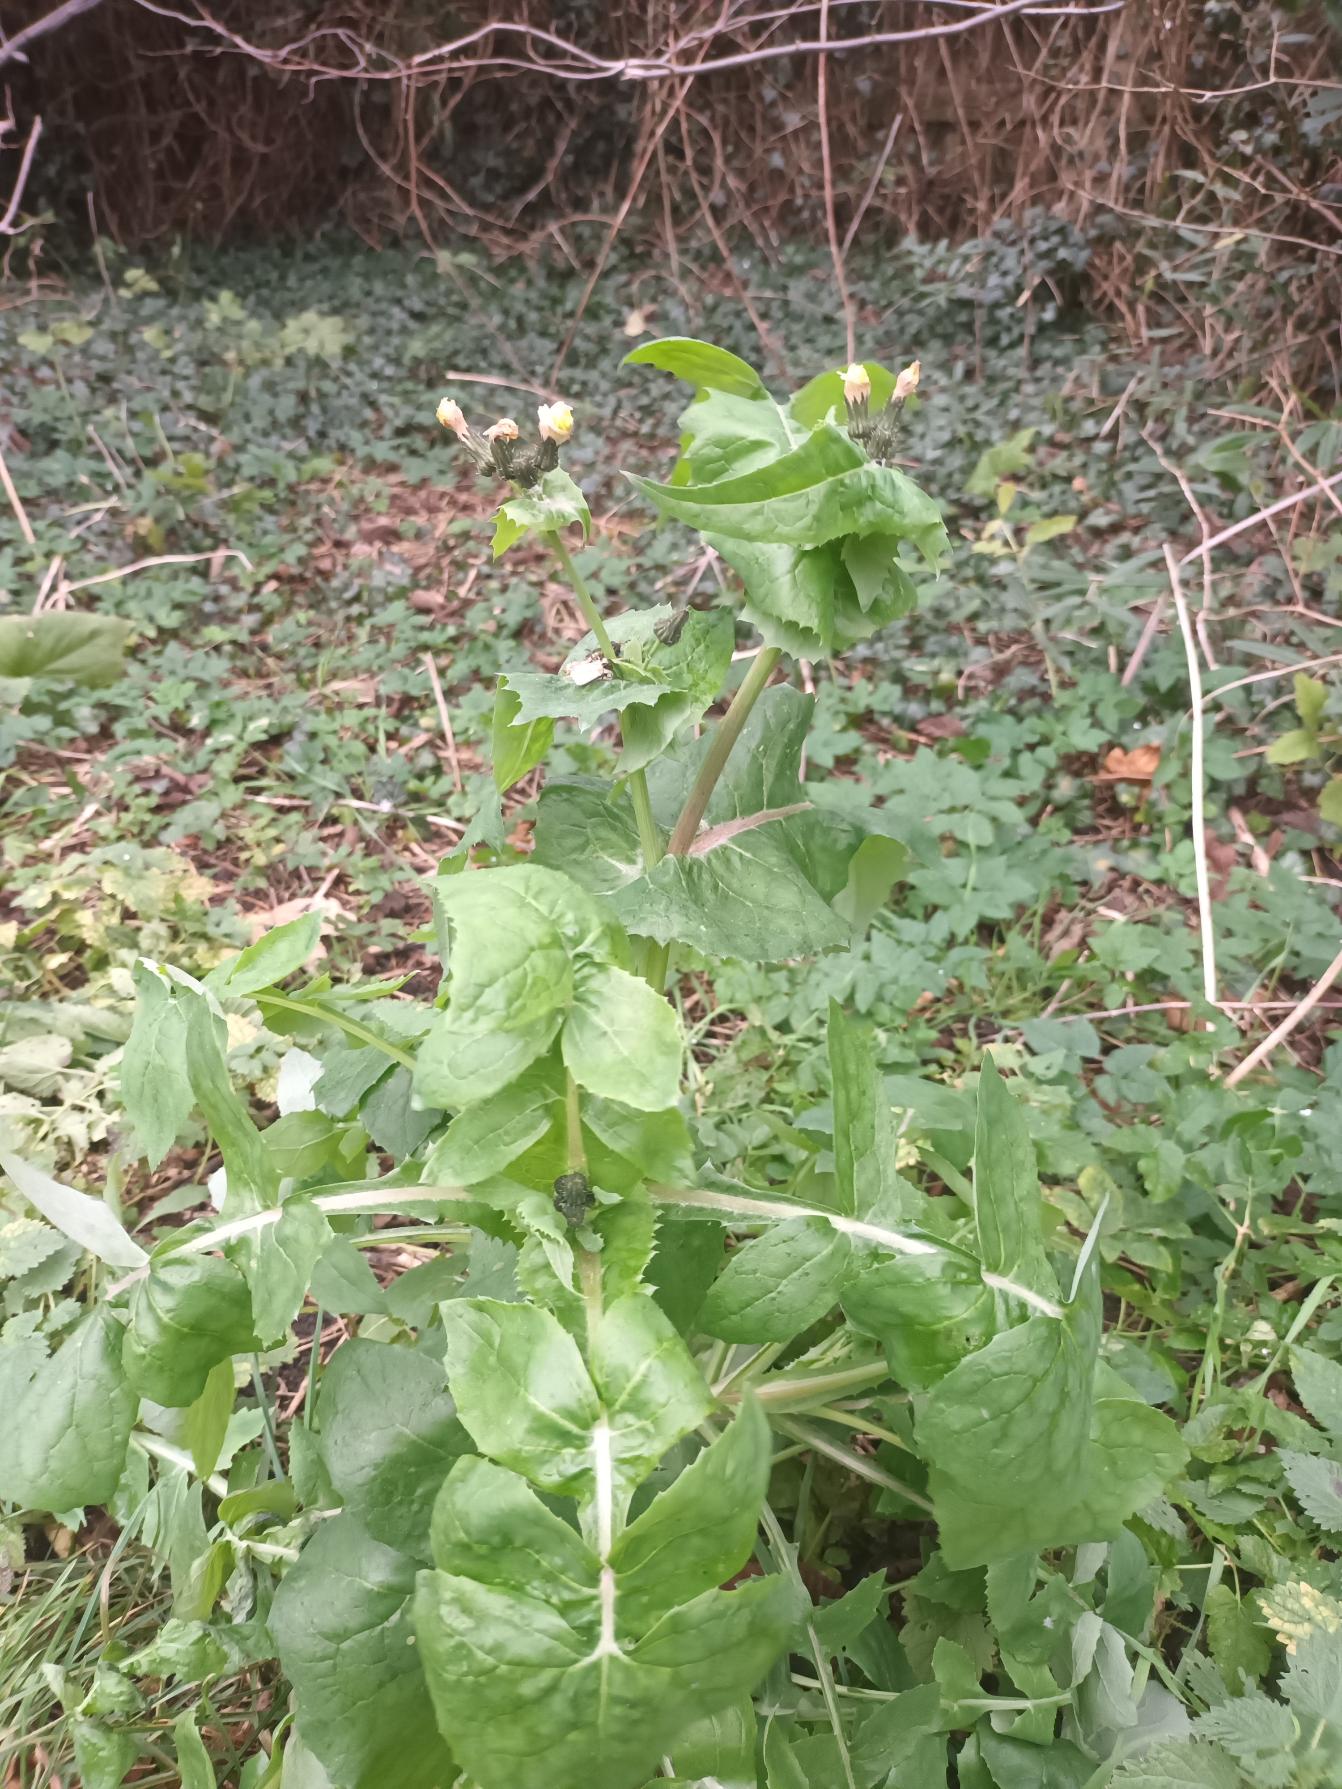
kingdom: Plantae
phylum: Tracheophyta
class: Magnoliopsida
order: Asterales
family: Asteraceae
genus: Sonchus
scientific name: Sonchus oleraceus
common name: Almindelig svinemælk
